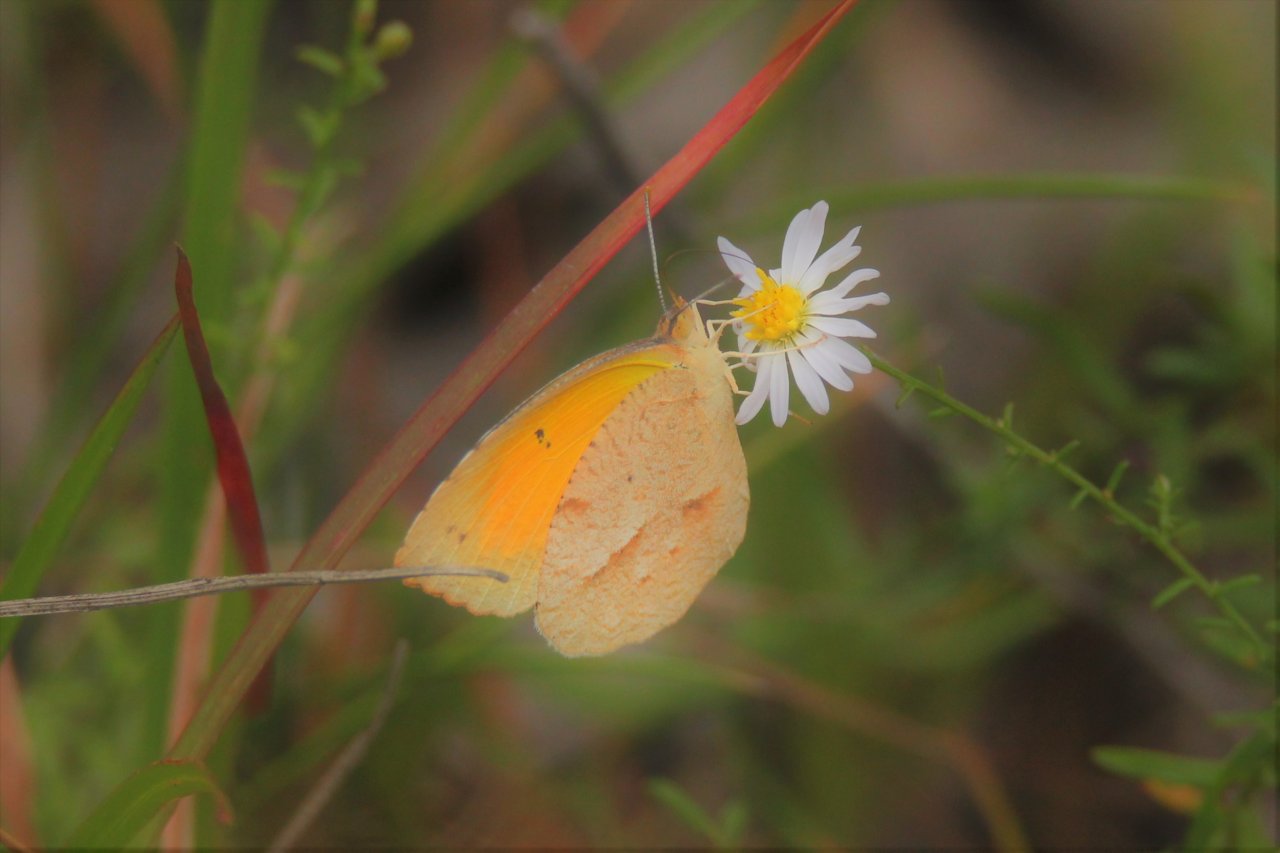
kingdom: Animalia
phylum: Arthropoda
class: Insecta
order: Lepidoptera
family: Pieridae
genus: Abaeis
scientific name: Abaeis nicippe
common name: Sleepy Orange
